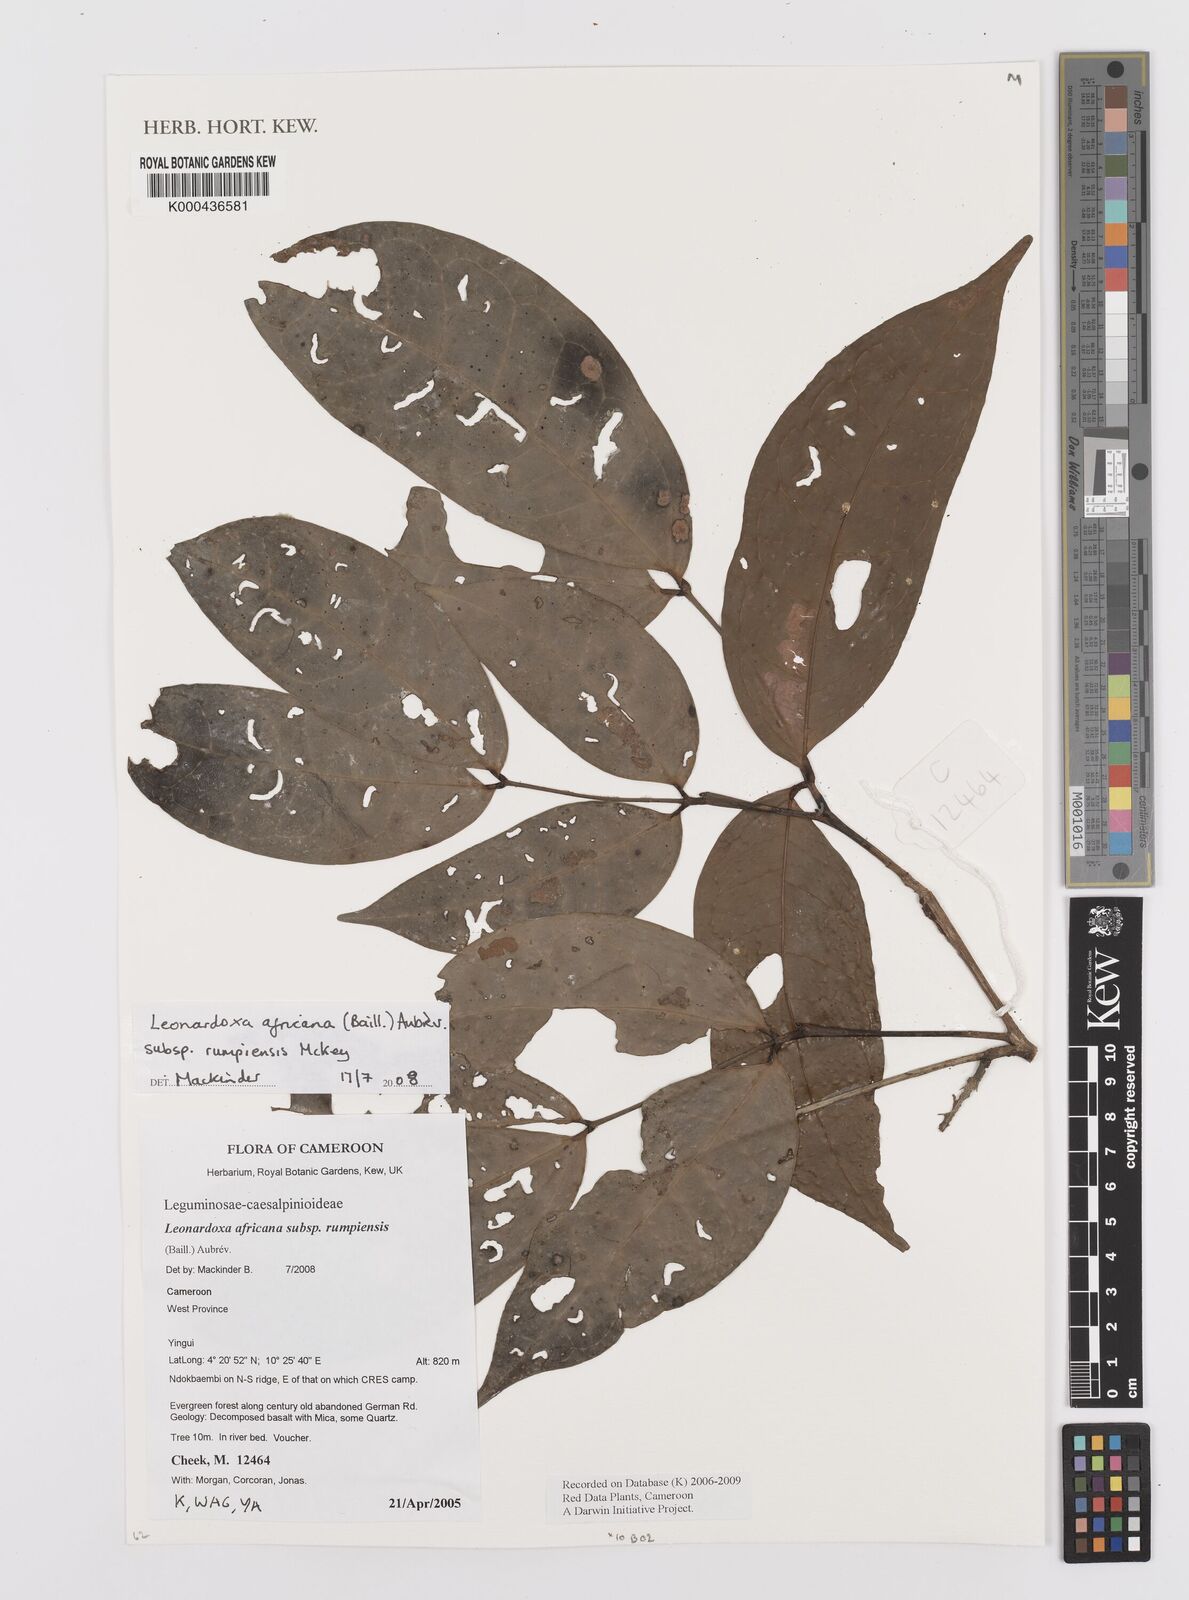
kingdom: Plantae
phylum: Tracheophyta
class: Magnoliopsida
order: Fabales
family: Fabaceae
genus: Leonardoxa
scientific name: Leonardoxa africana
